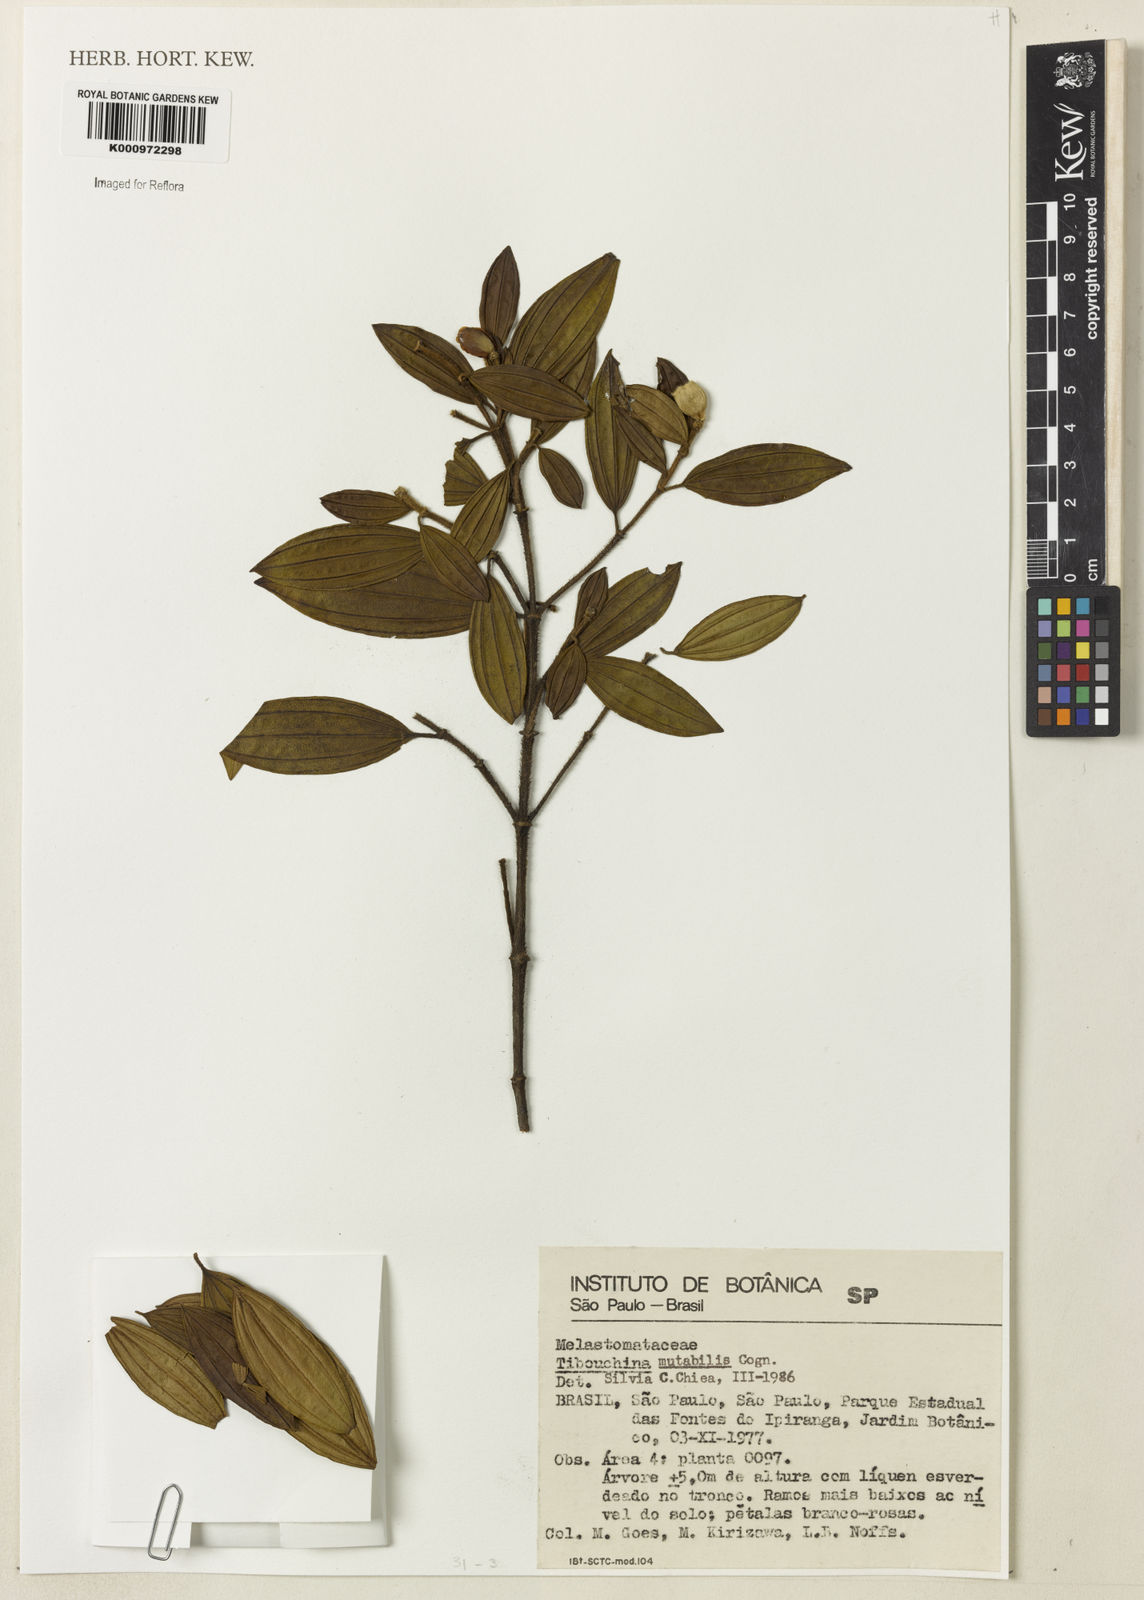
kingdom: Plantae
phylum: Tracheophyta
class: Magnoliopsida
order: Myrtales
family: Melastomataceae
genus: Pleroma
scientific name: Pleroma mutabile
